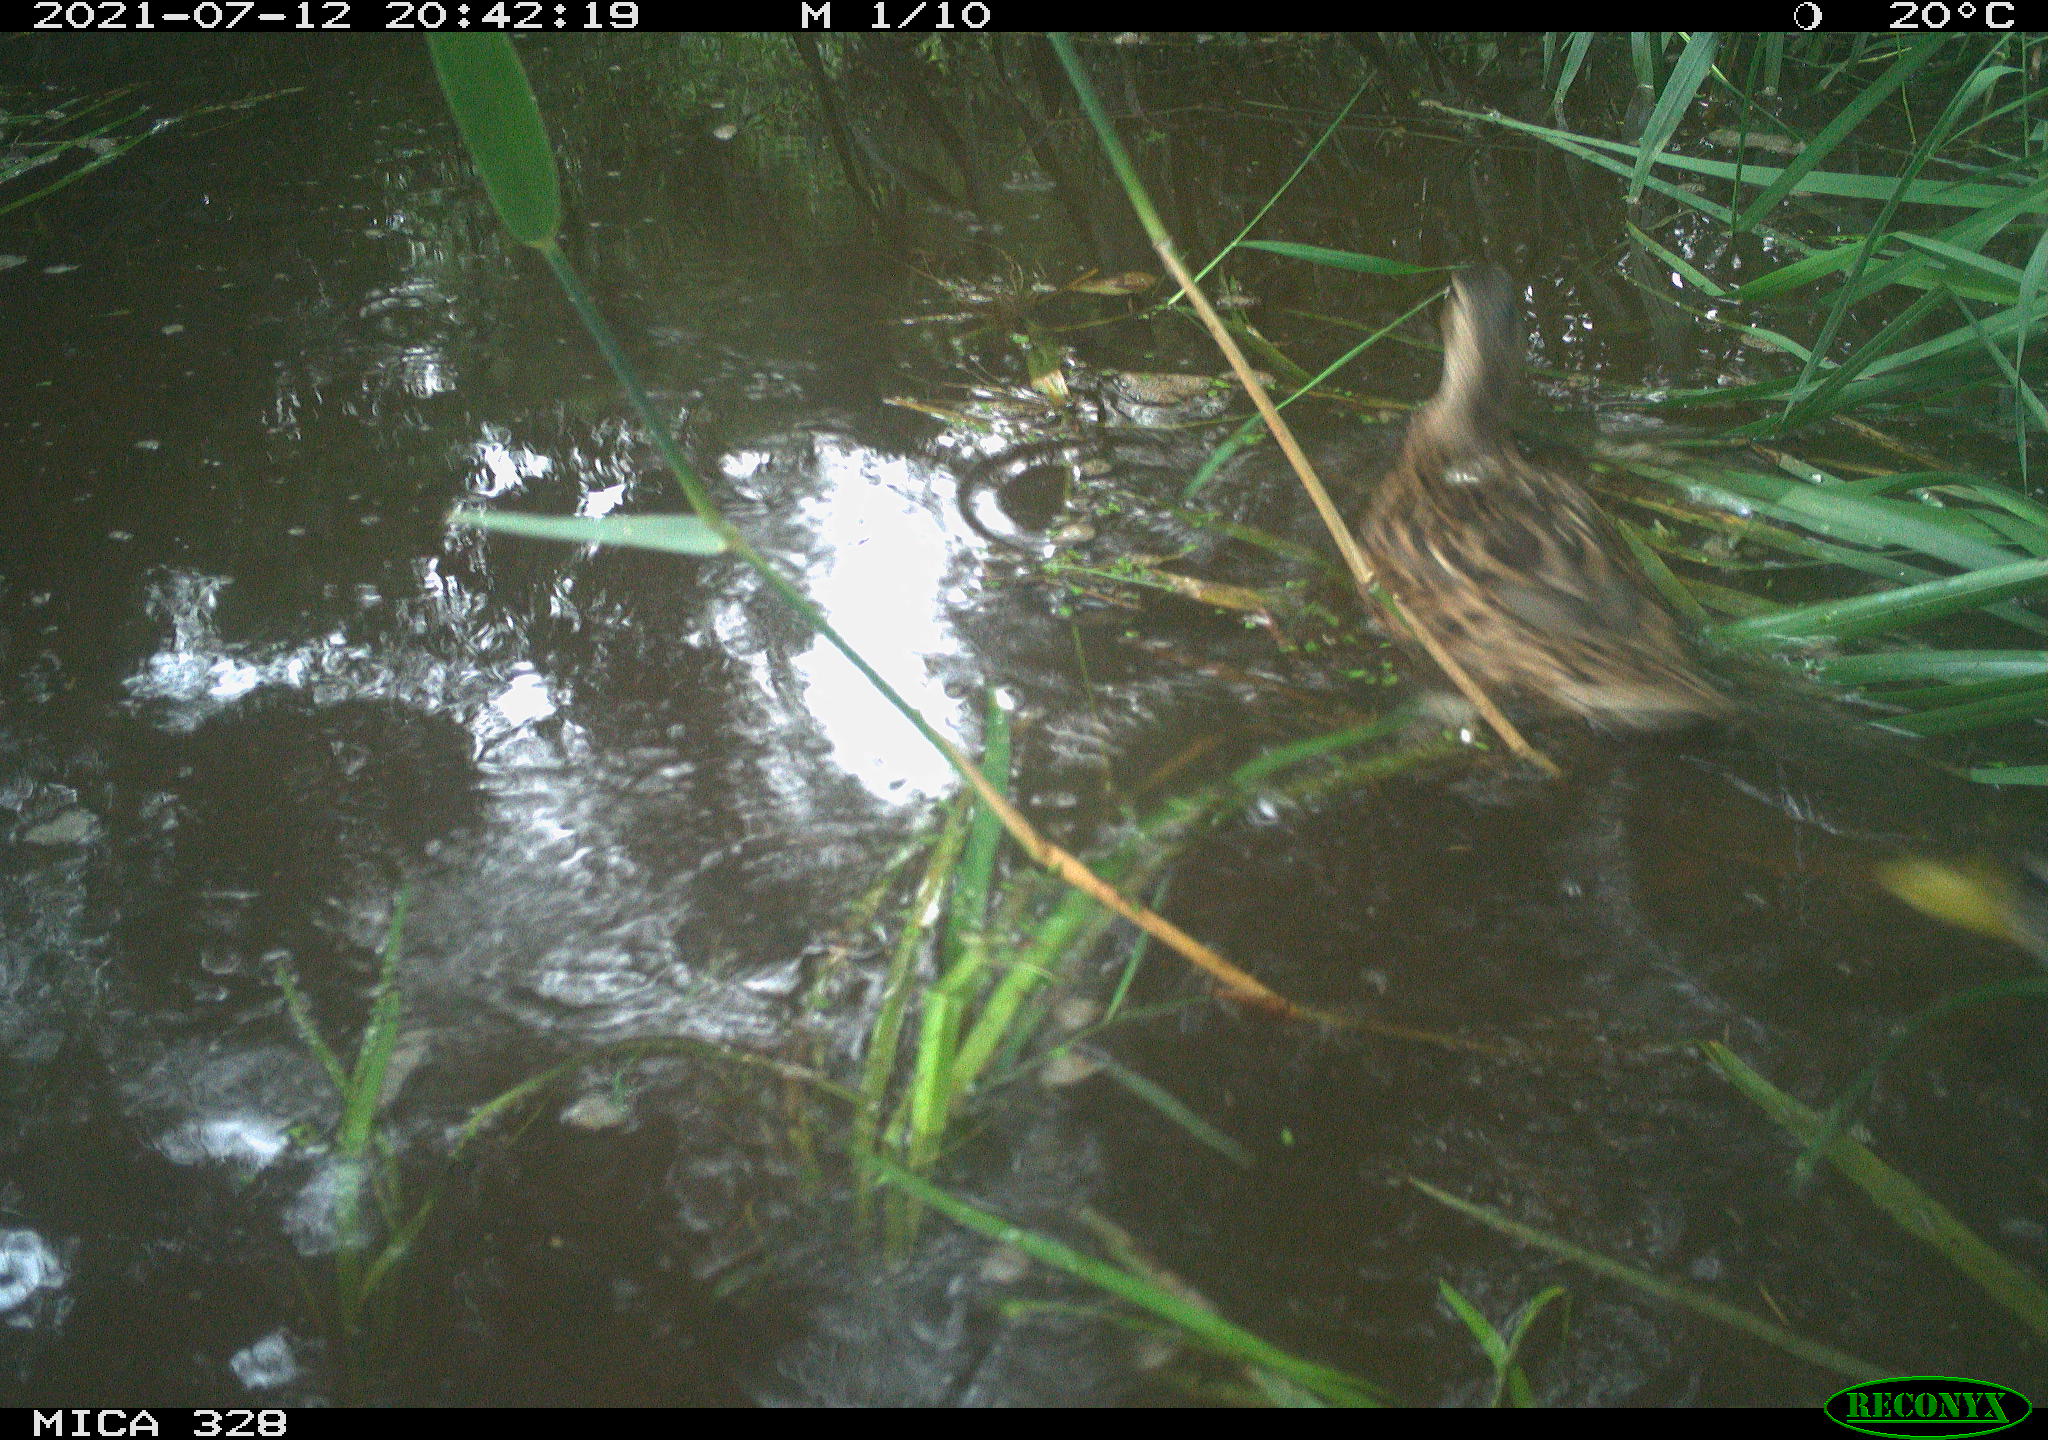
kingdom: Animalia
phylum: Chordata
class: Aves
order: Anseriformes
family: Anatidae
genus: Anas
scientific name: Anas platyrhynchos
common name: Mallard
